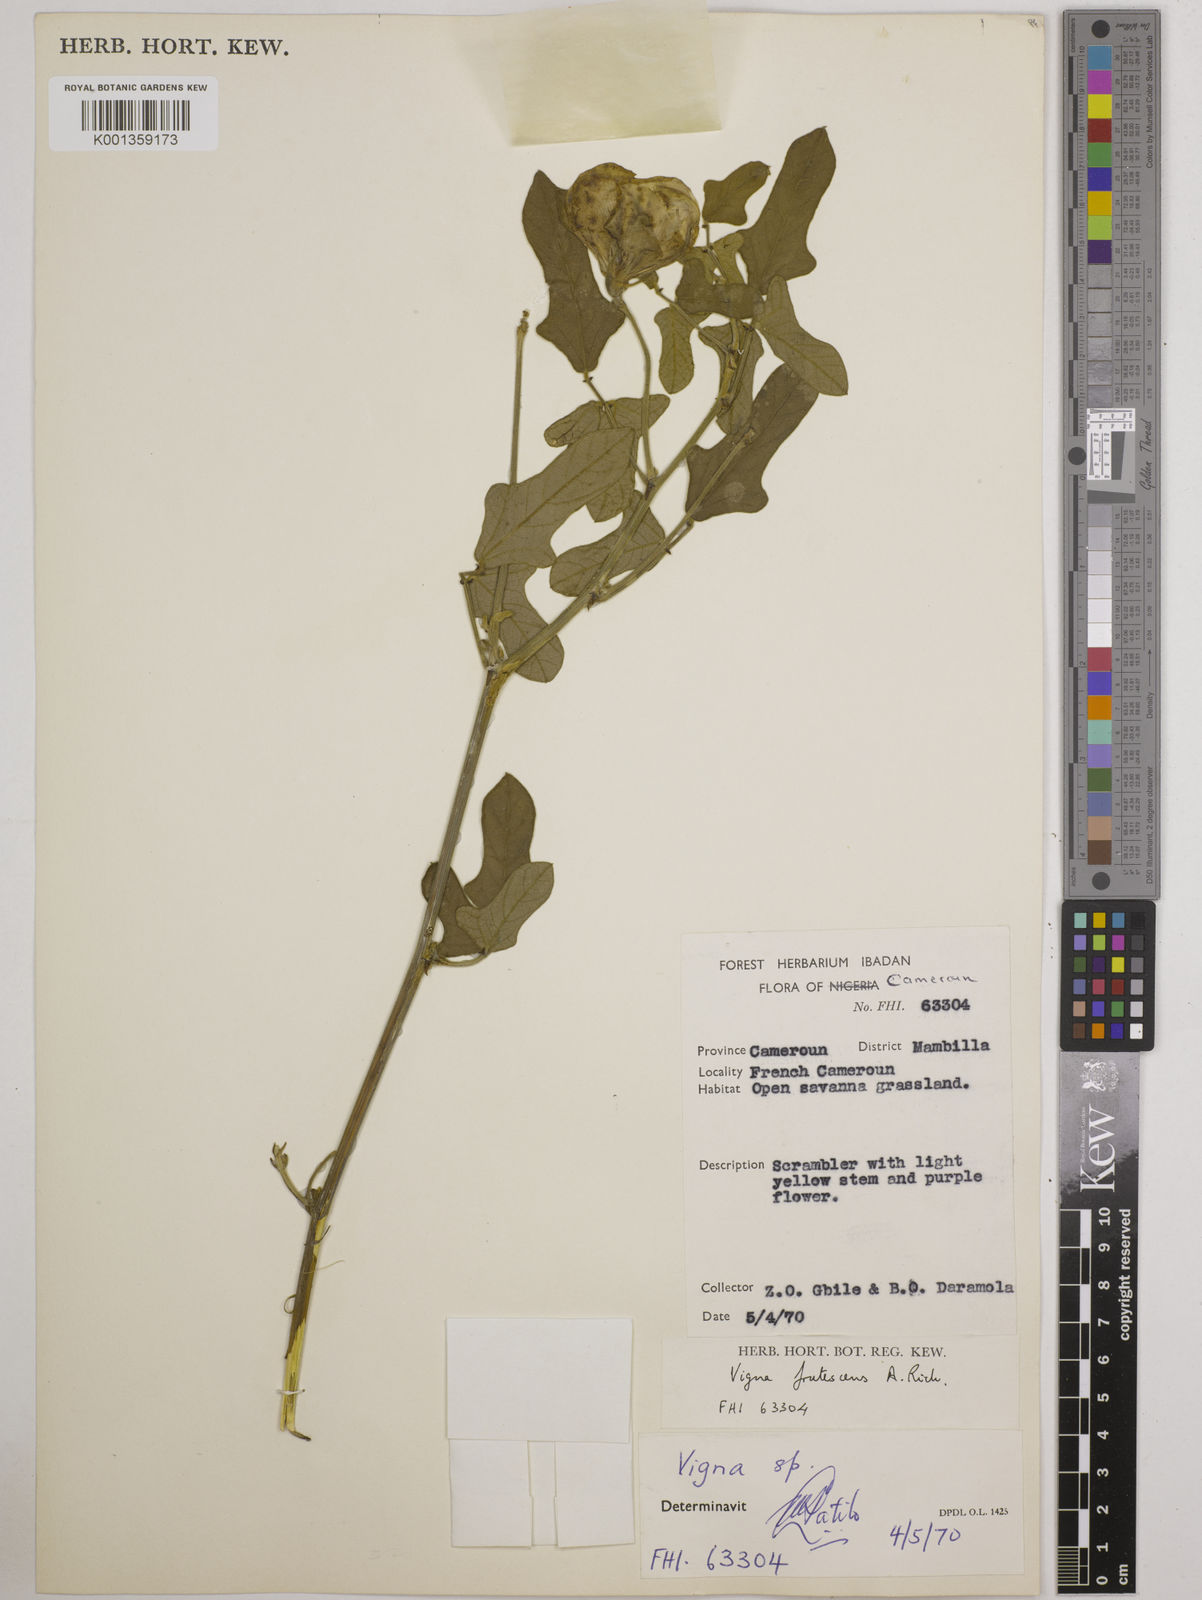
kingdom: Plantae
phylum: Tracheophyta
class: Magnoliopsida
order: Fabales
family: Fabaceae
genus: Vigna
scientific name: Vigna frutescens
